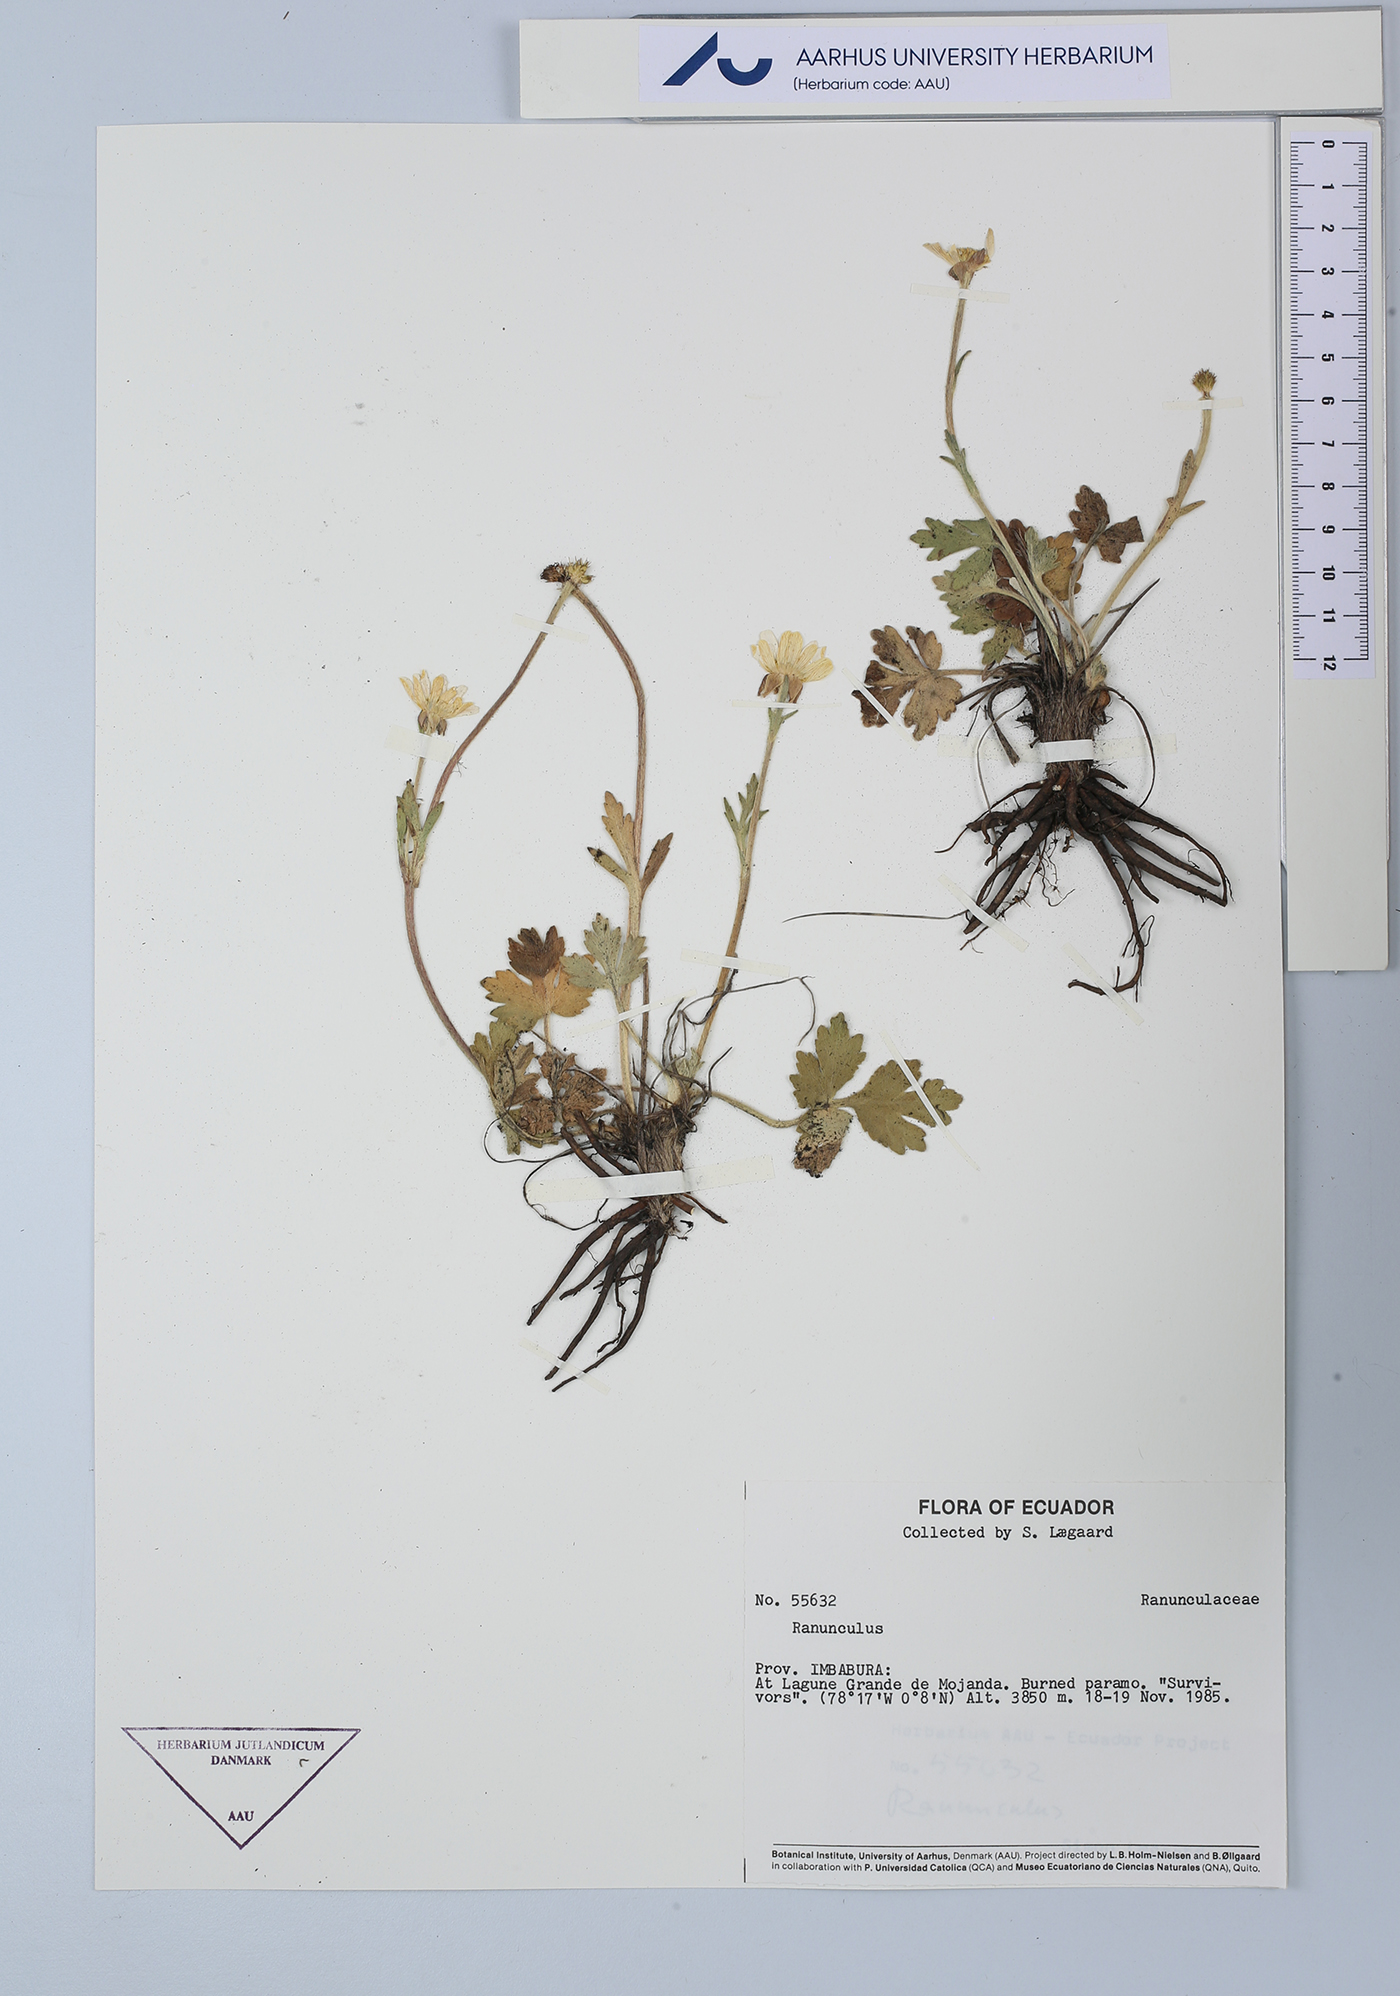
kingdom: Plantae
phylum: Tracheophyta
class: Magnoliopsida
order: Ranunculales
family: Ranunculaceae
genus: Ranunculus
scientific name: Ranunculus
